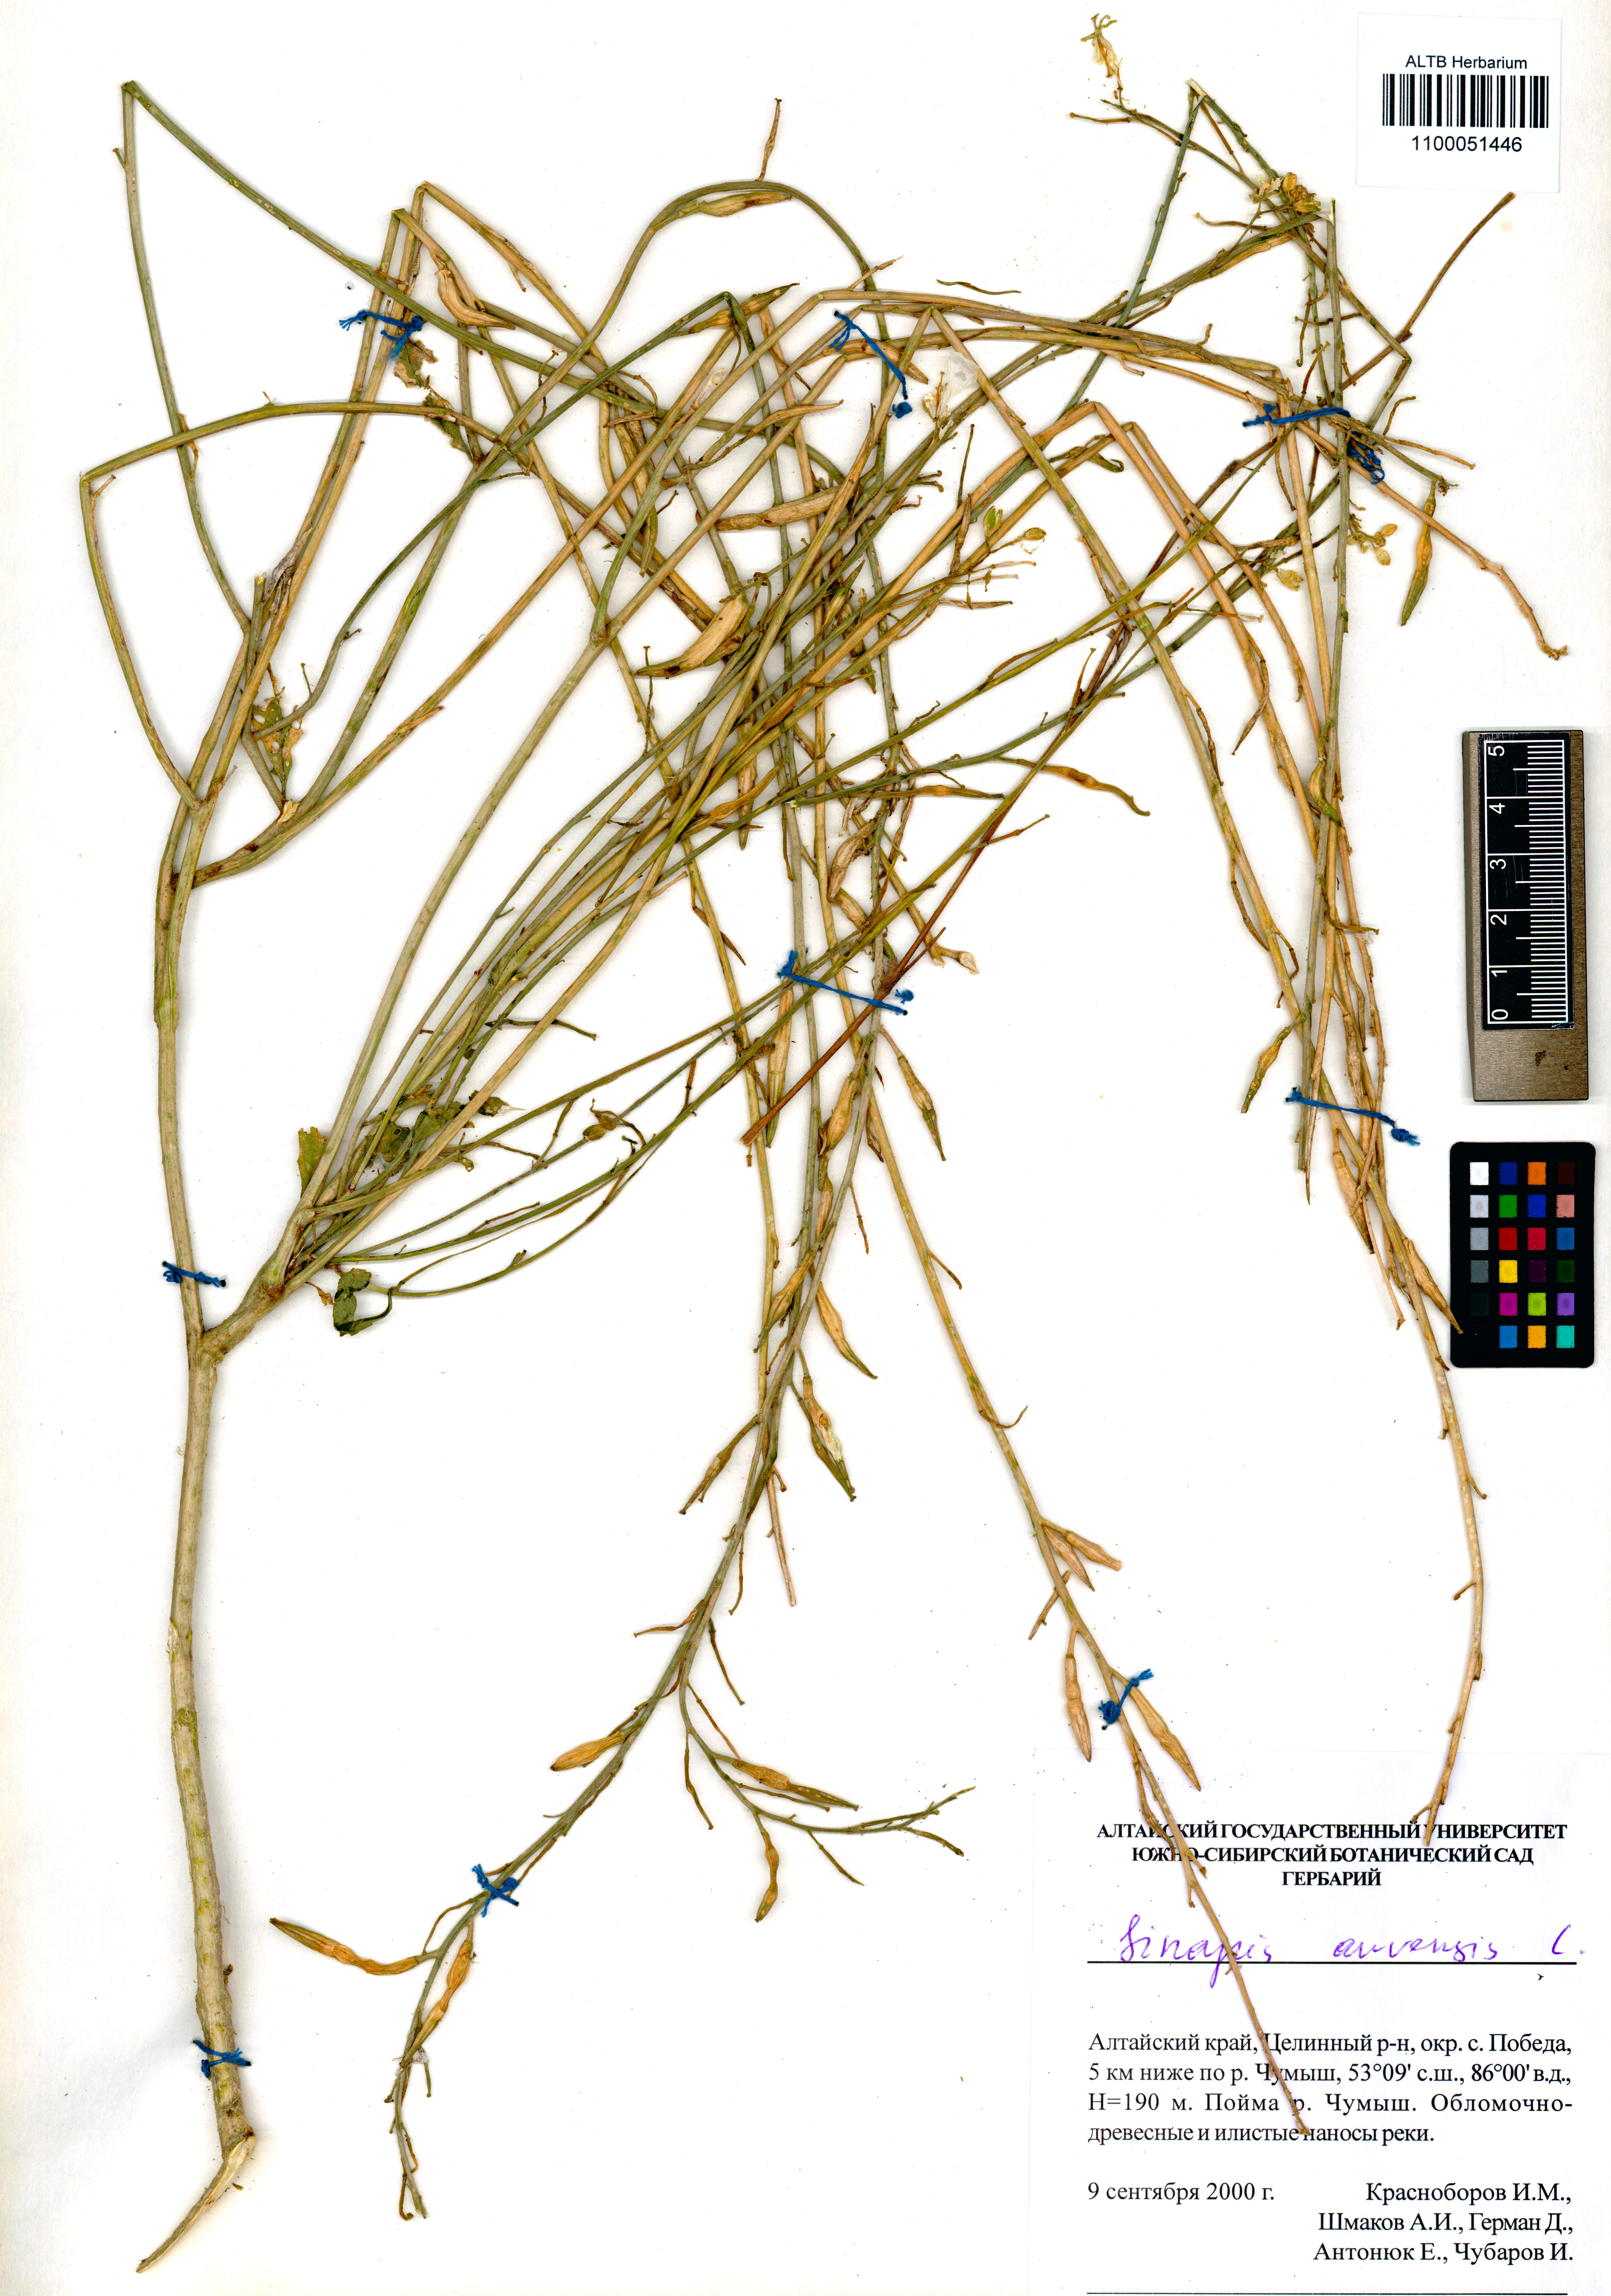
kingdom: Plantae
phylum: Tracheophyta
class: Magnoliopsida
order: Brassicales
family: Brassicaceae
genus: Sinapis
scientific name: Sinapis arvensis
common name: Charlock
